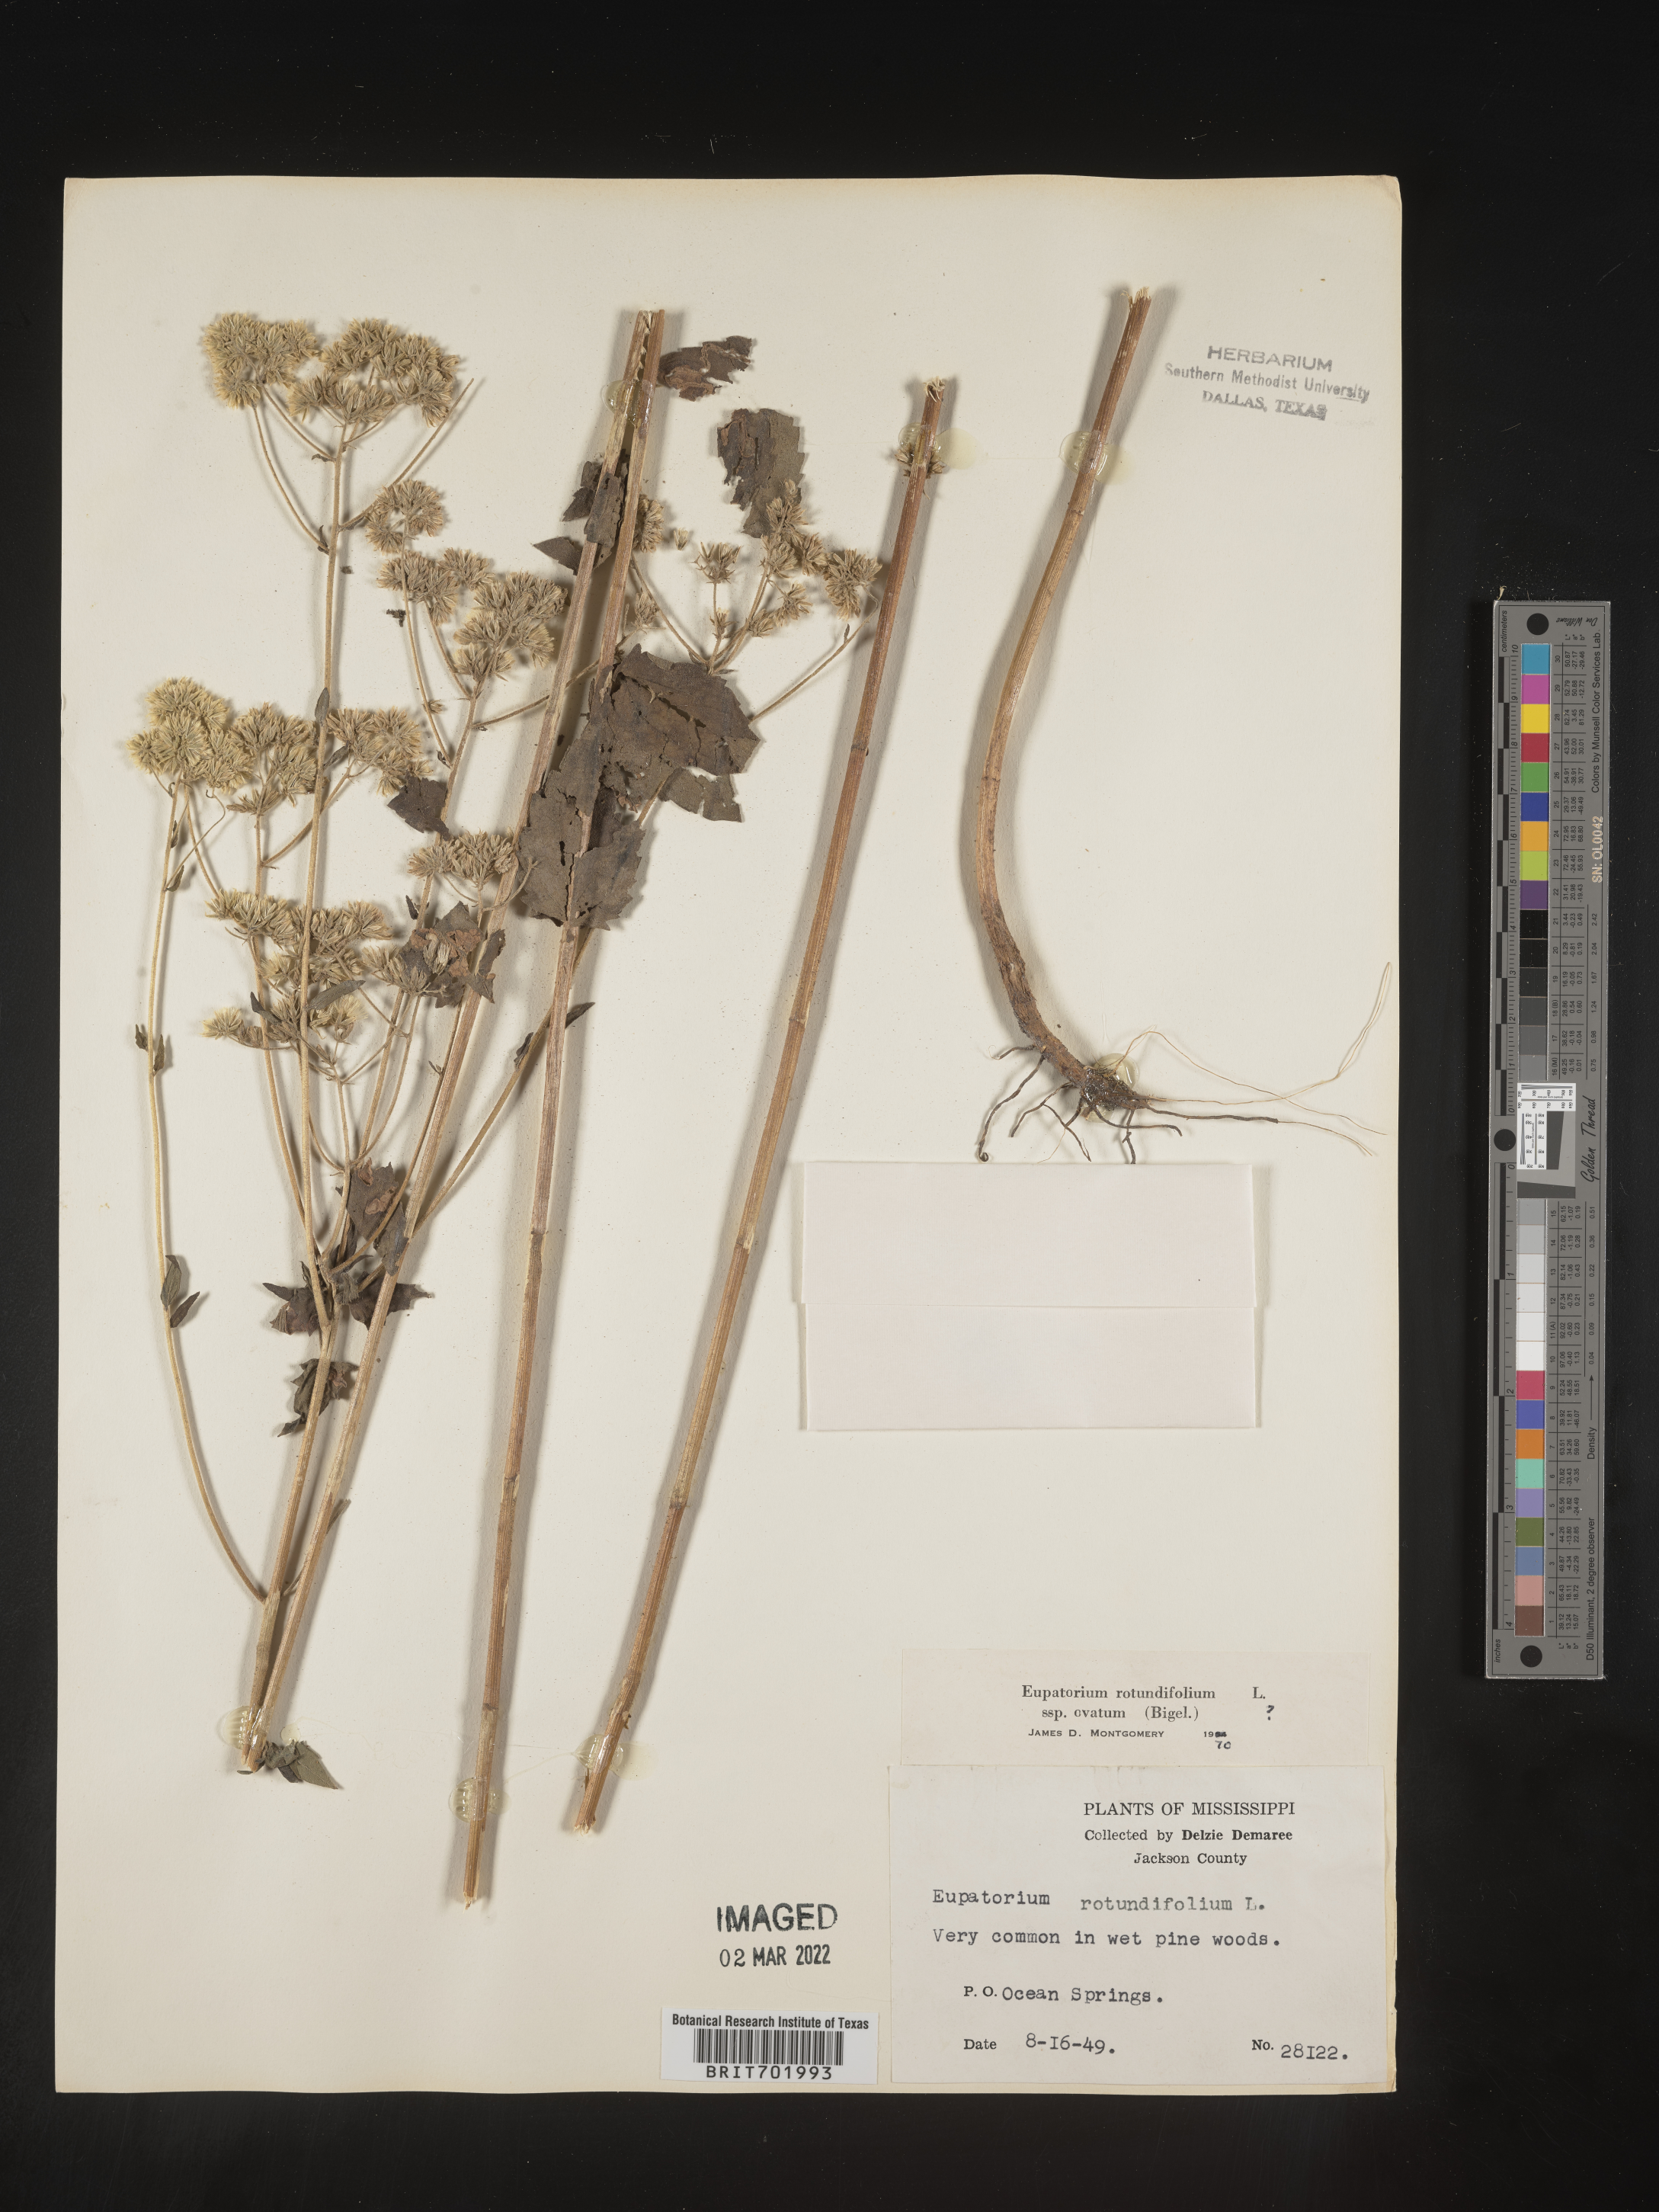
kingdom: Plantae
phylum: Tracheophyta
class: Magnoliopsida
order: Asterales
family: Asteraceae
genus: Eupatorium
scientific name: Eupatorium rotundifolium
